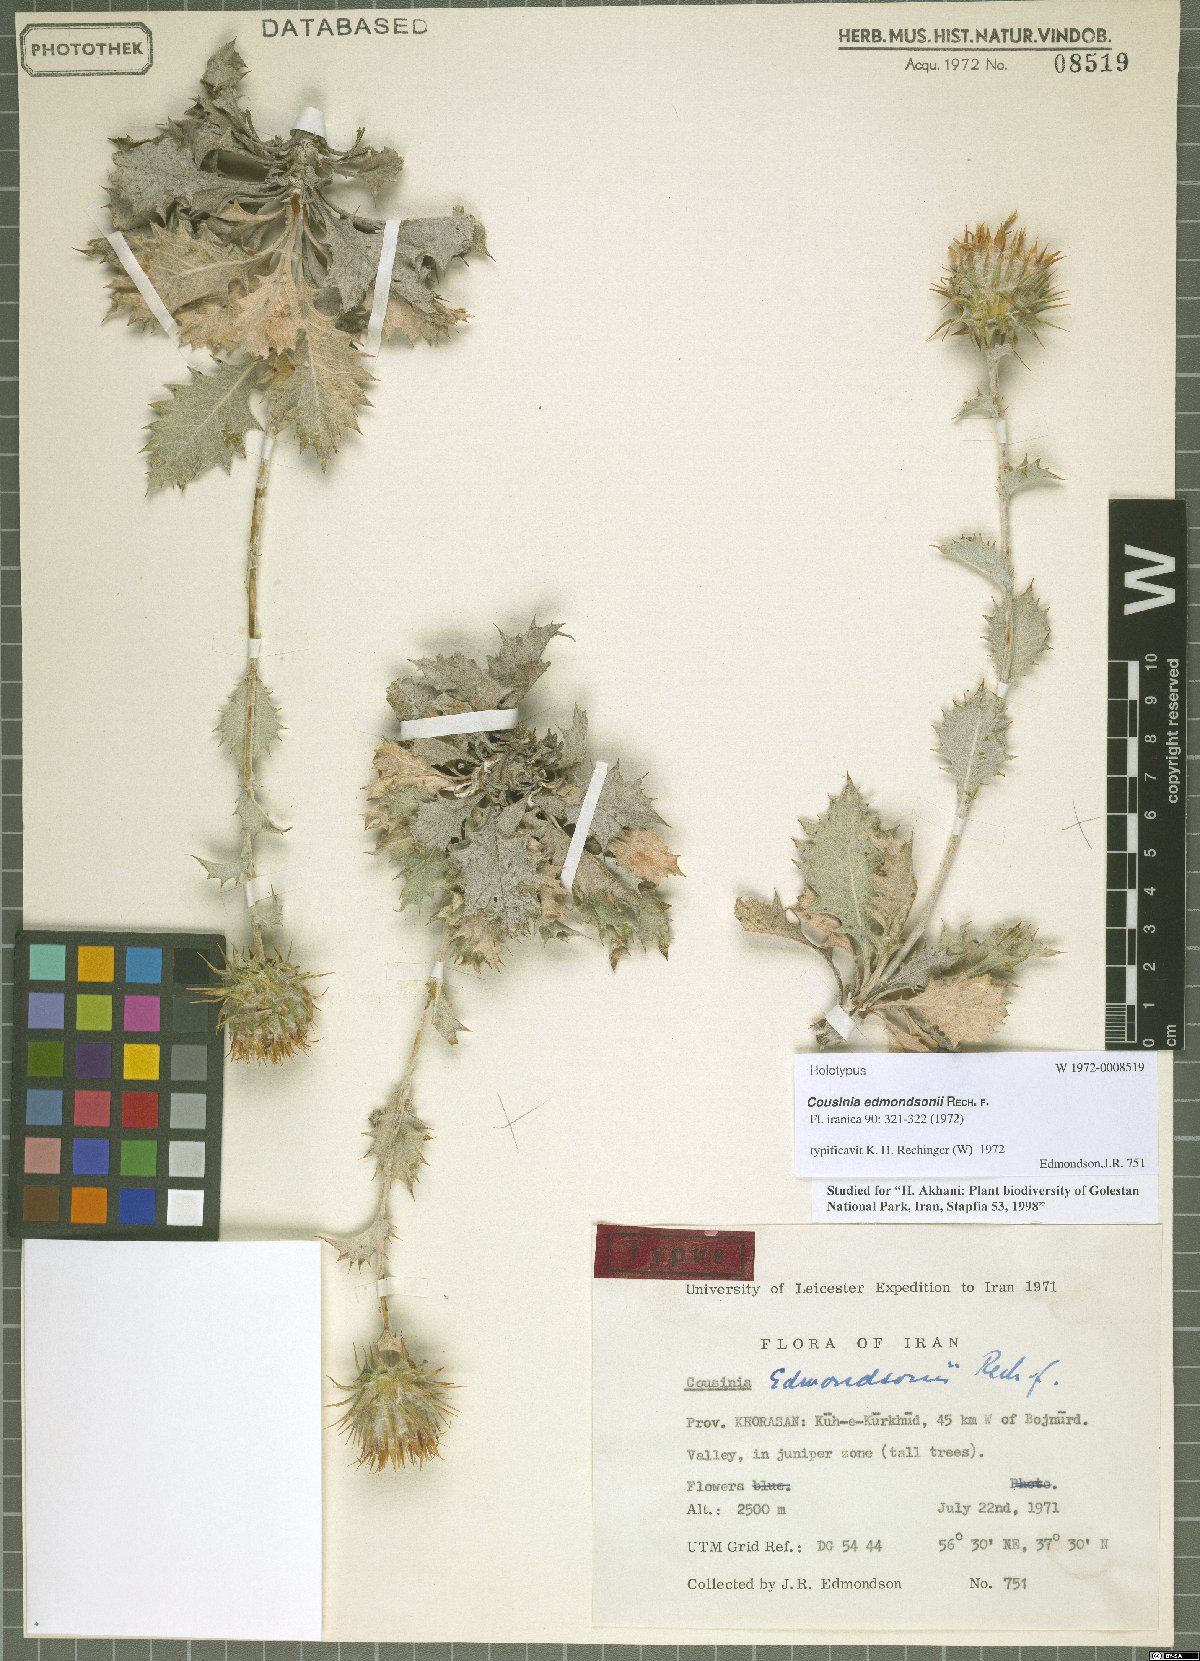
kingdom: Plantae
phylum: Tracheophyta
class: Magnoliopsida
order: Asterales
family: Asteraceae
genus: Cousinia
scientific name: Cousinia edmondsonii
